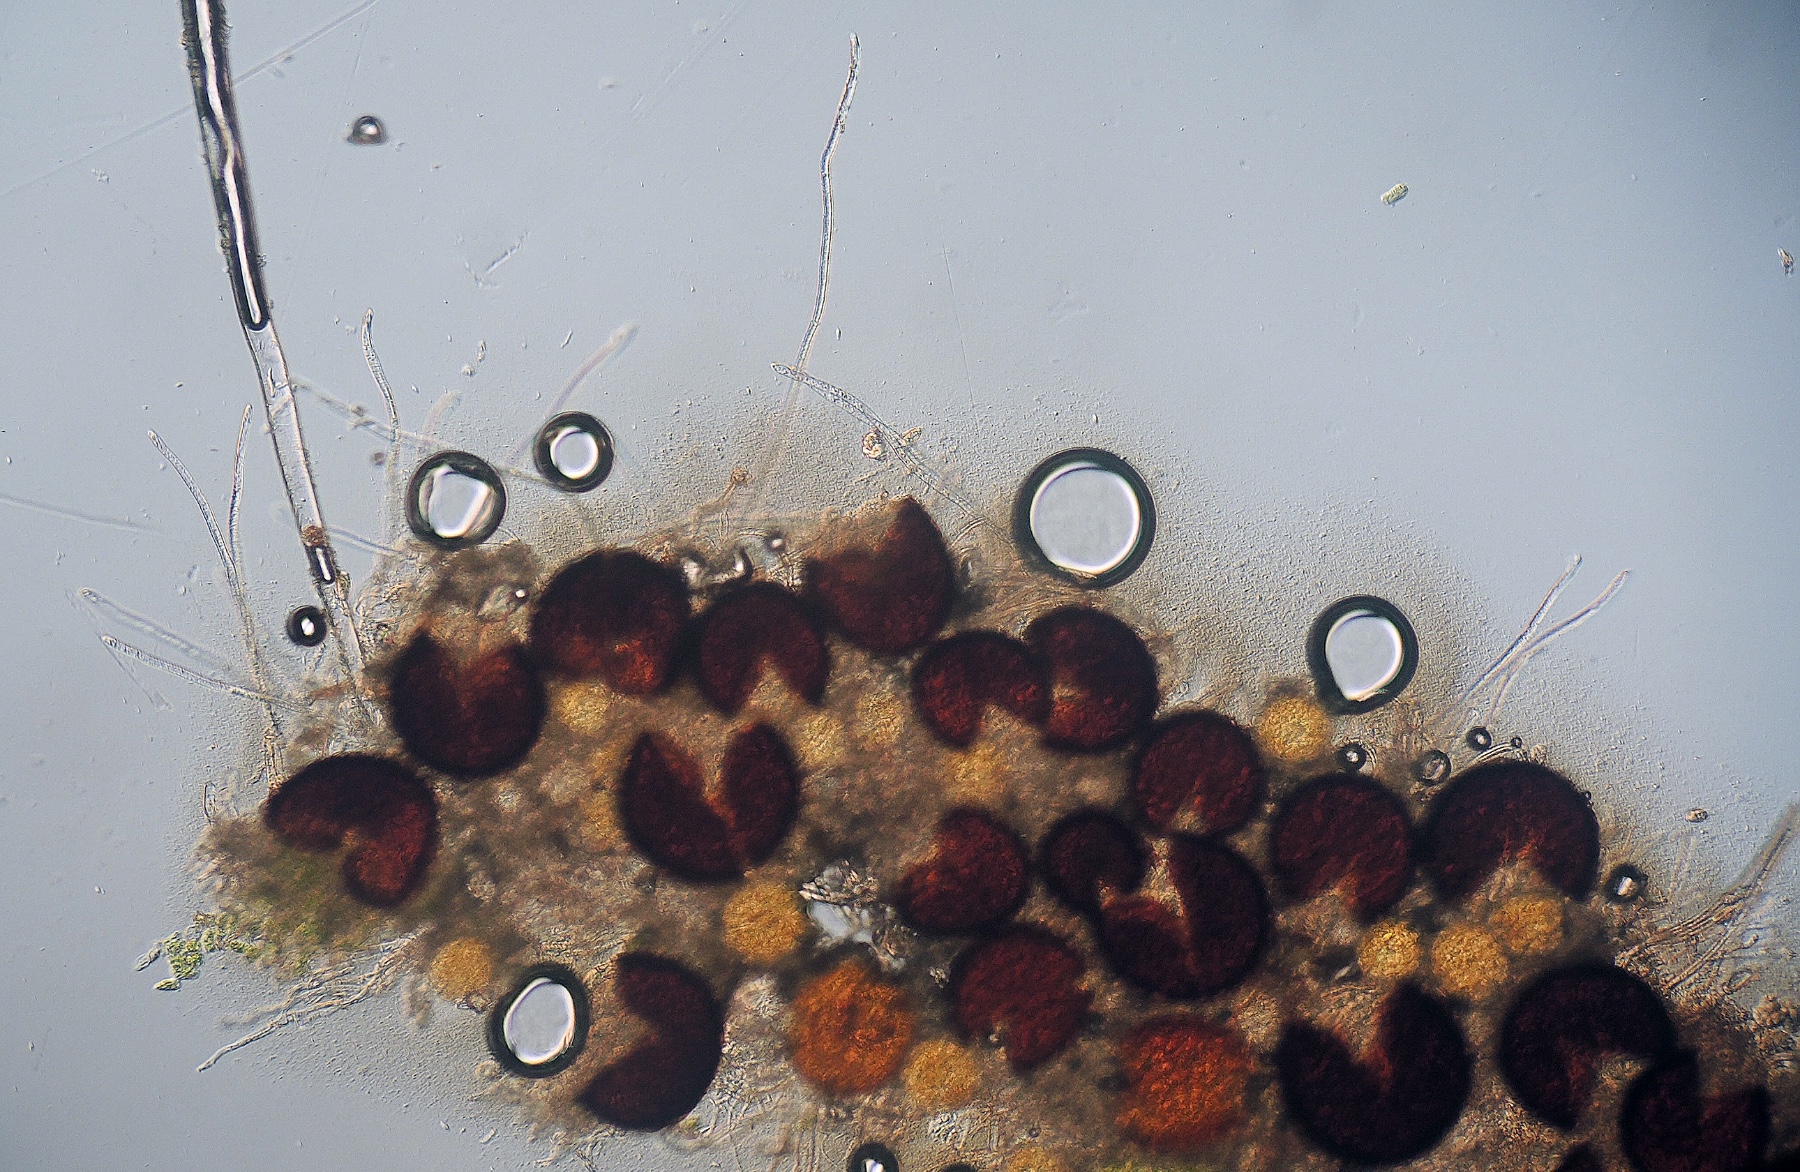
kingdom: Fungi
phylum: Ascomycota
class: Leotiomycetes
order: Helotiales
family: Erysiphaceae
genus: Erysiphe
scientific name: Erysiphe astragali
